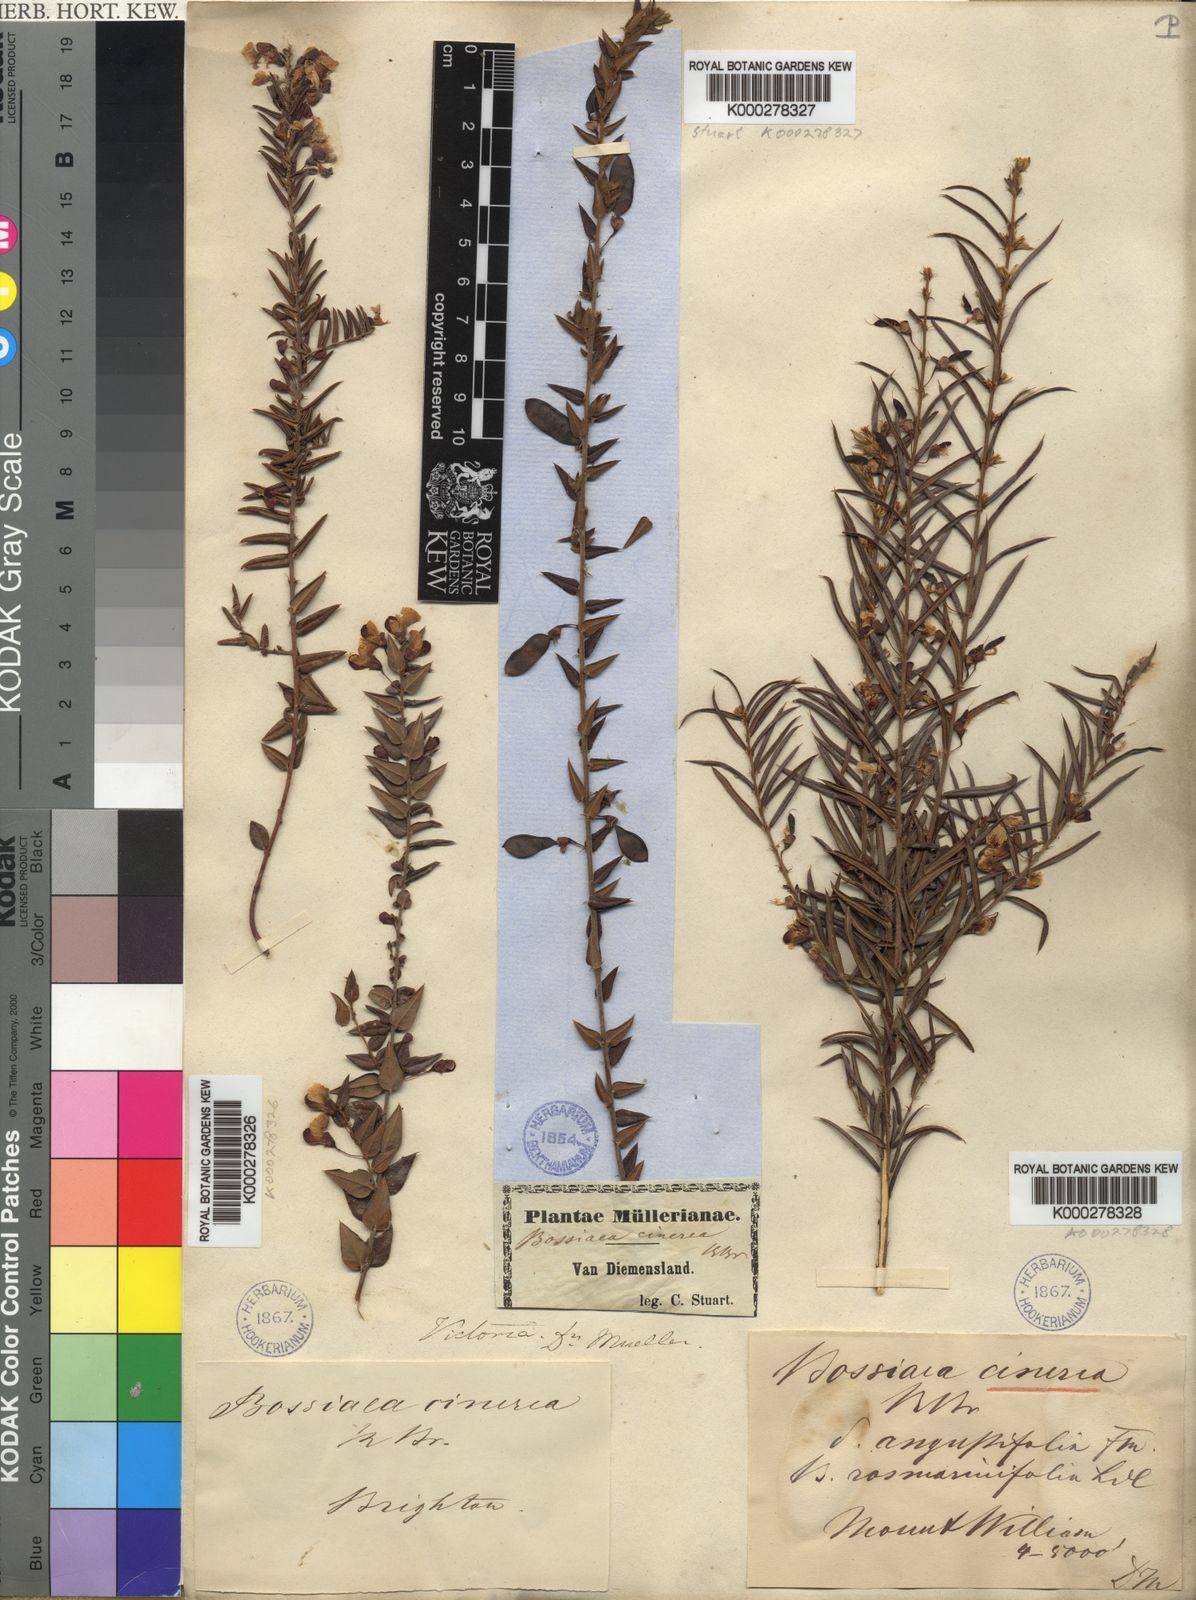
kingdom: Plantae
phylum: Tracheophyta
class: Magnoliopsida
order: Fabales
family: Fabaceae
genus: Bossiaea
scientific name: Bossiaea cinerea
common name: Showy bossiaea
